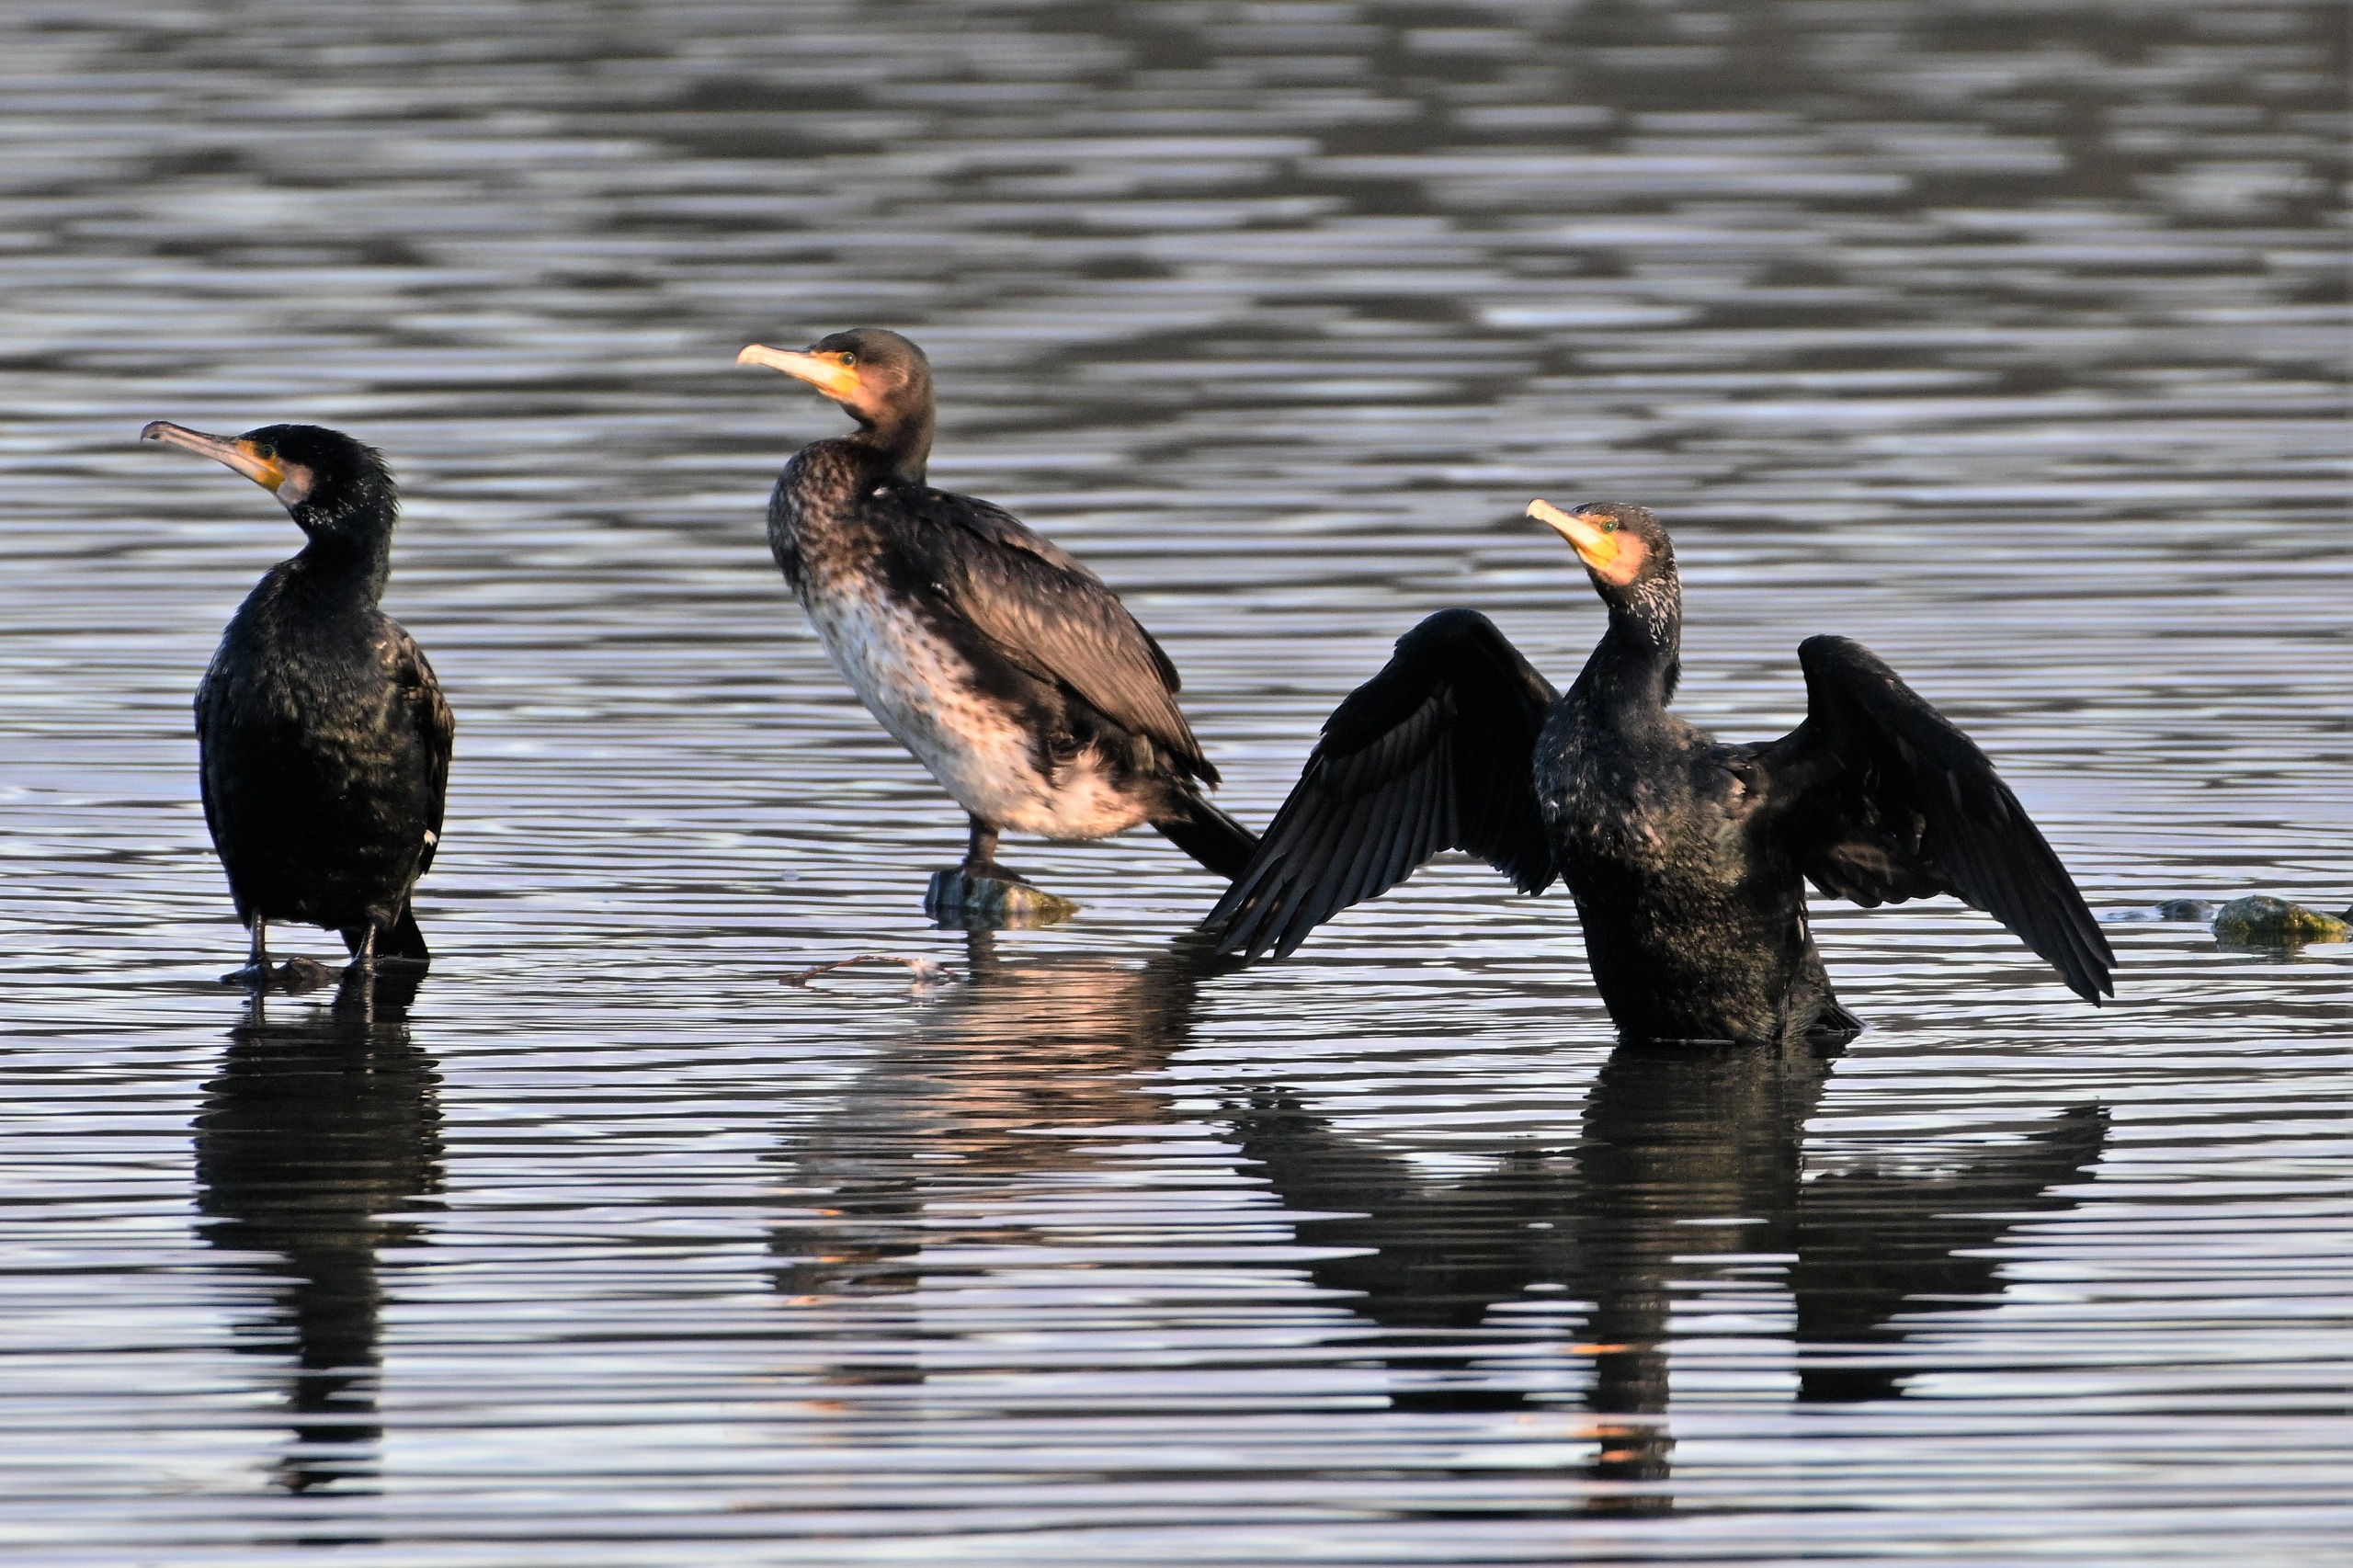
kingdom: Animalia
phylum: Chordata
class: Aves
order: Suliformes
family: Phalacrocoracidae
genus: Phalacrocorax
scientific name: Phalacrocorax carbo
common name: Skarv
